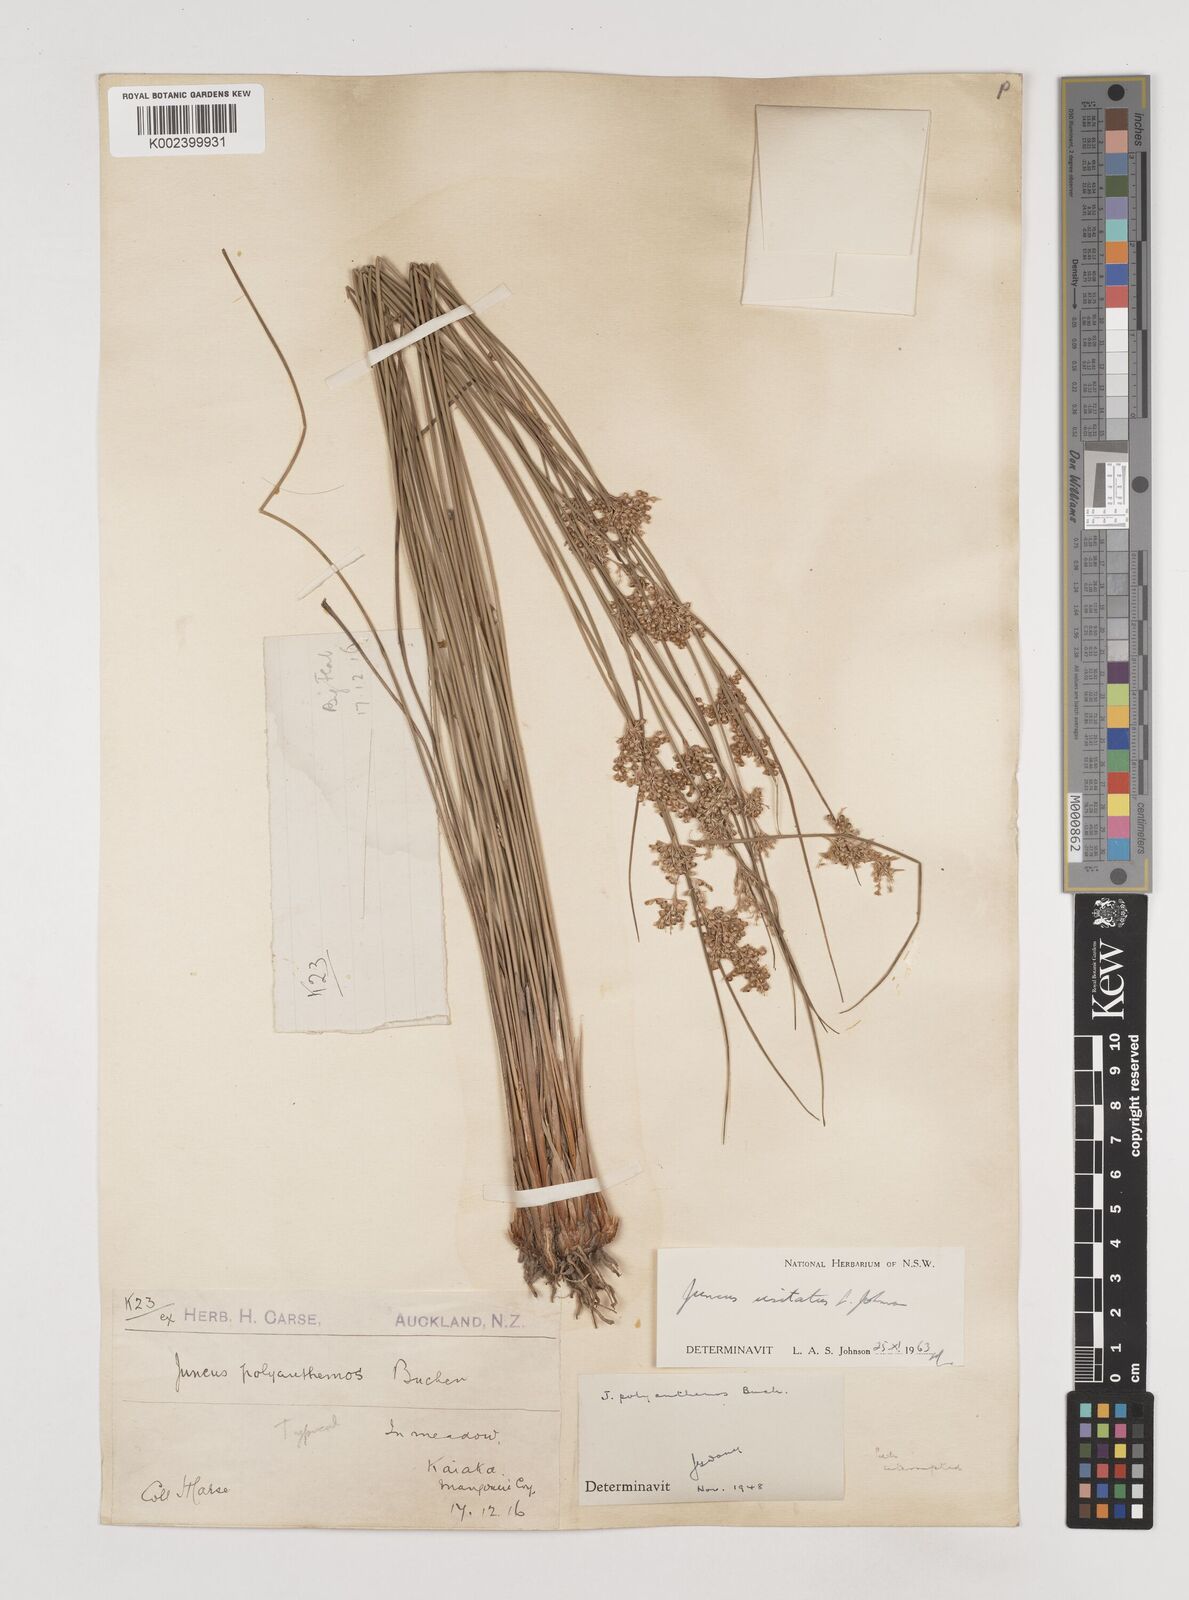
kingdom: Plantae
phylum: Tracheophyta
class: Liliopsida
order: Poales
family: Juncaceae
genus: Juncus
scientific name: Juncus usitatus
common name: Rush
